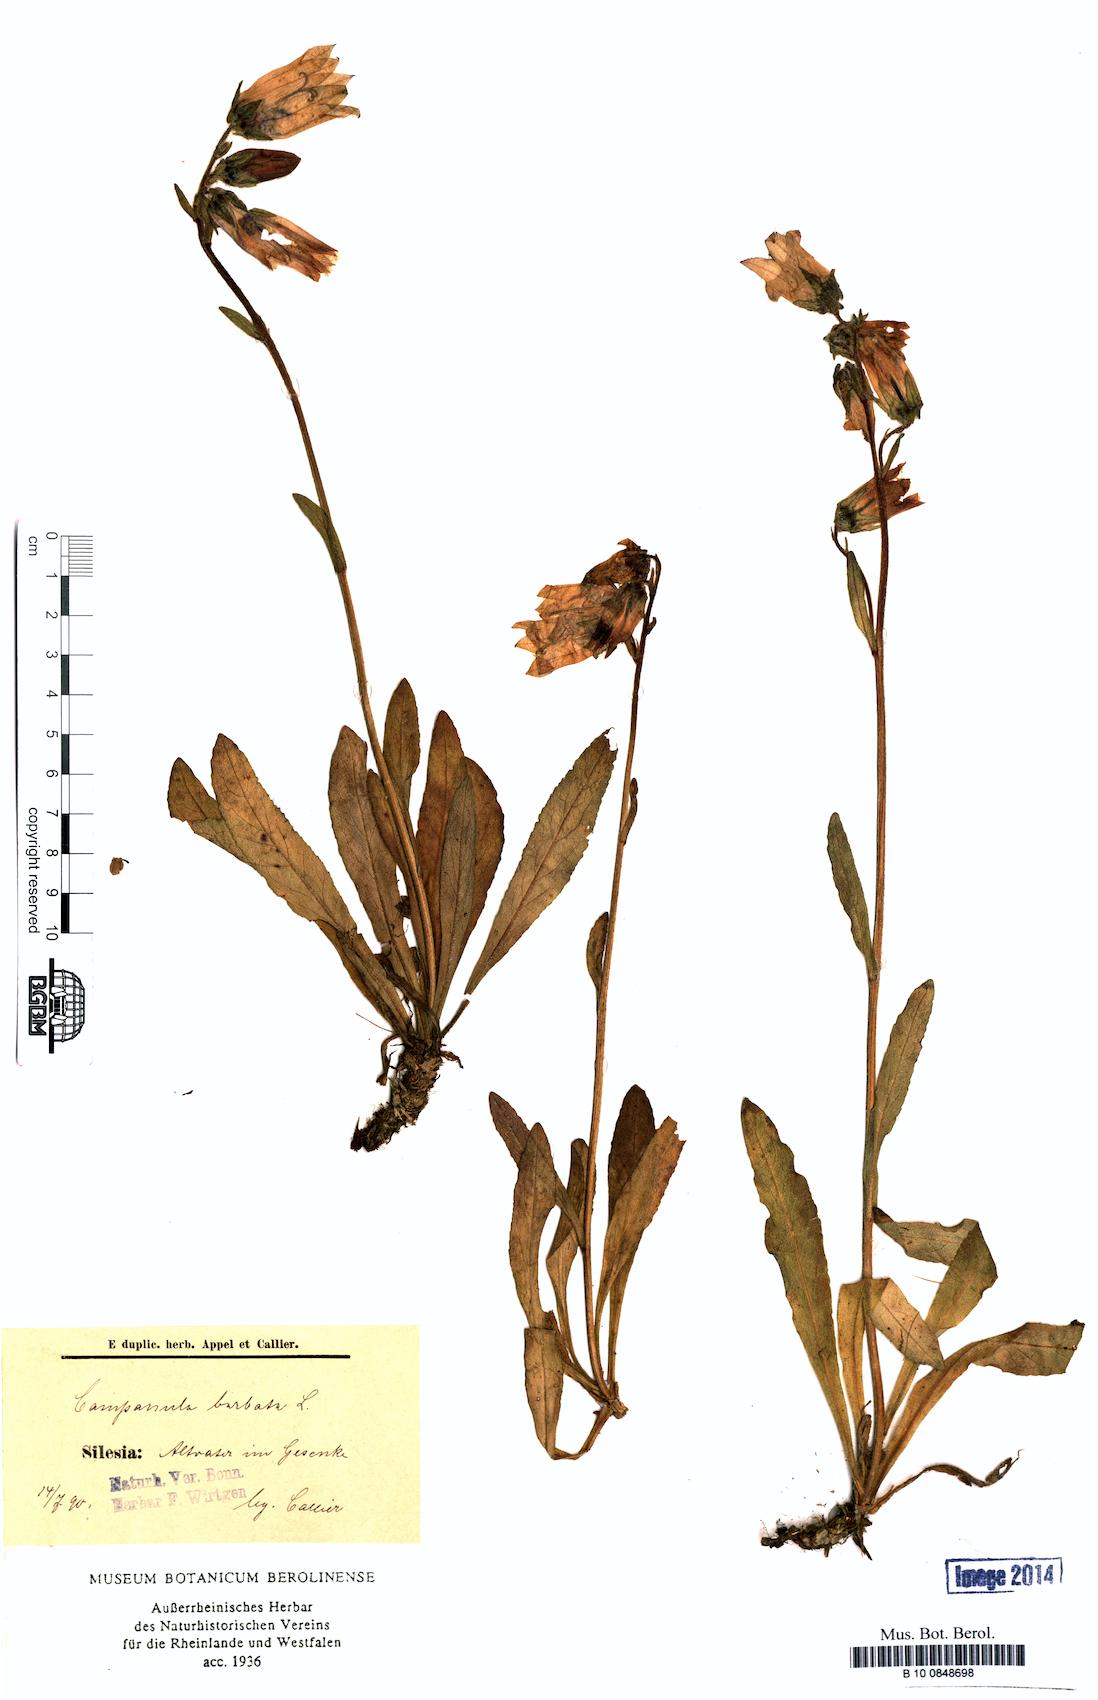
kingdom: Plantae
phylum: Tracheophyta
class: Magnoliopsida
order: Asterales
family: Campanulaceae
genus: Campanula
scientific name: Campanula barbata
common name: Bearded bellflower
